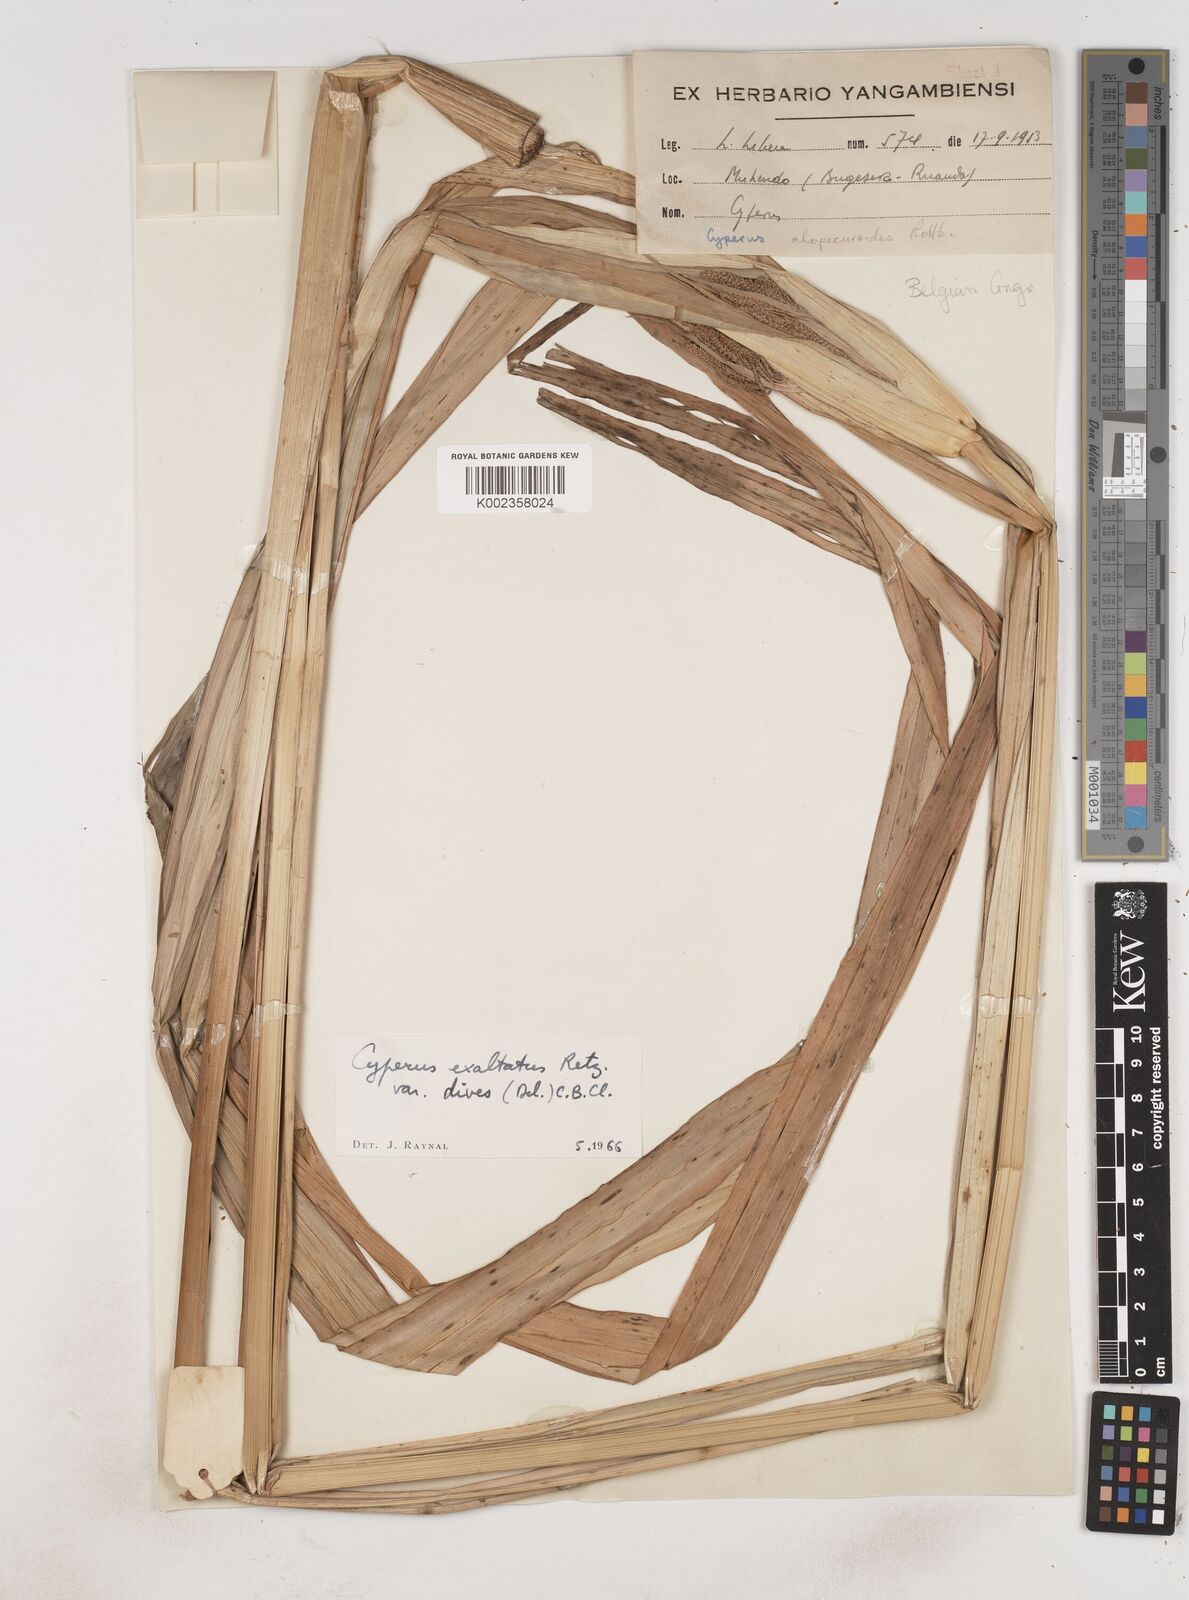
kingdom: Plantae
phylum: Tracheophyta
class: Liliopsida
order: Poales
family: Cyperaceae
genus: Cyperus
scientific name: Cyperus dives
